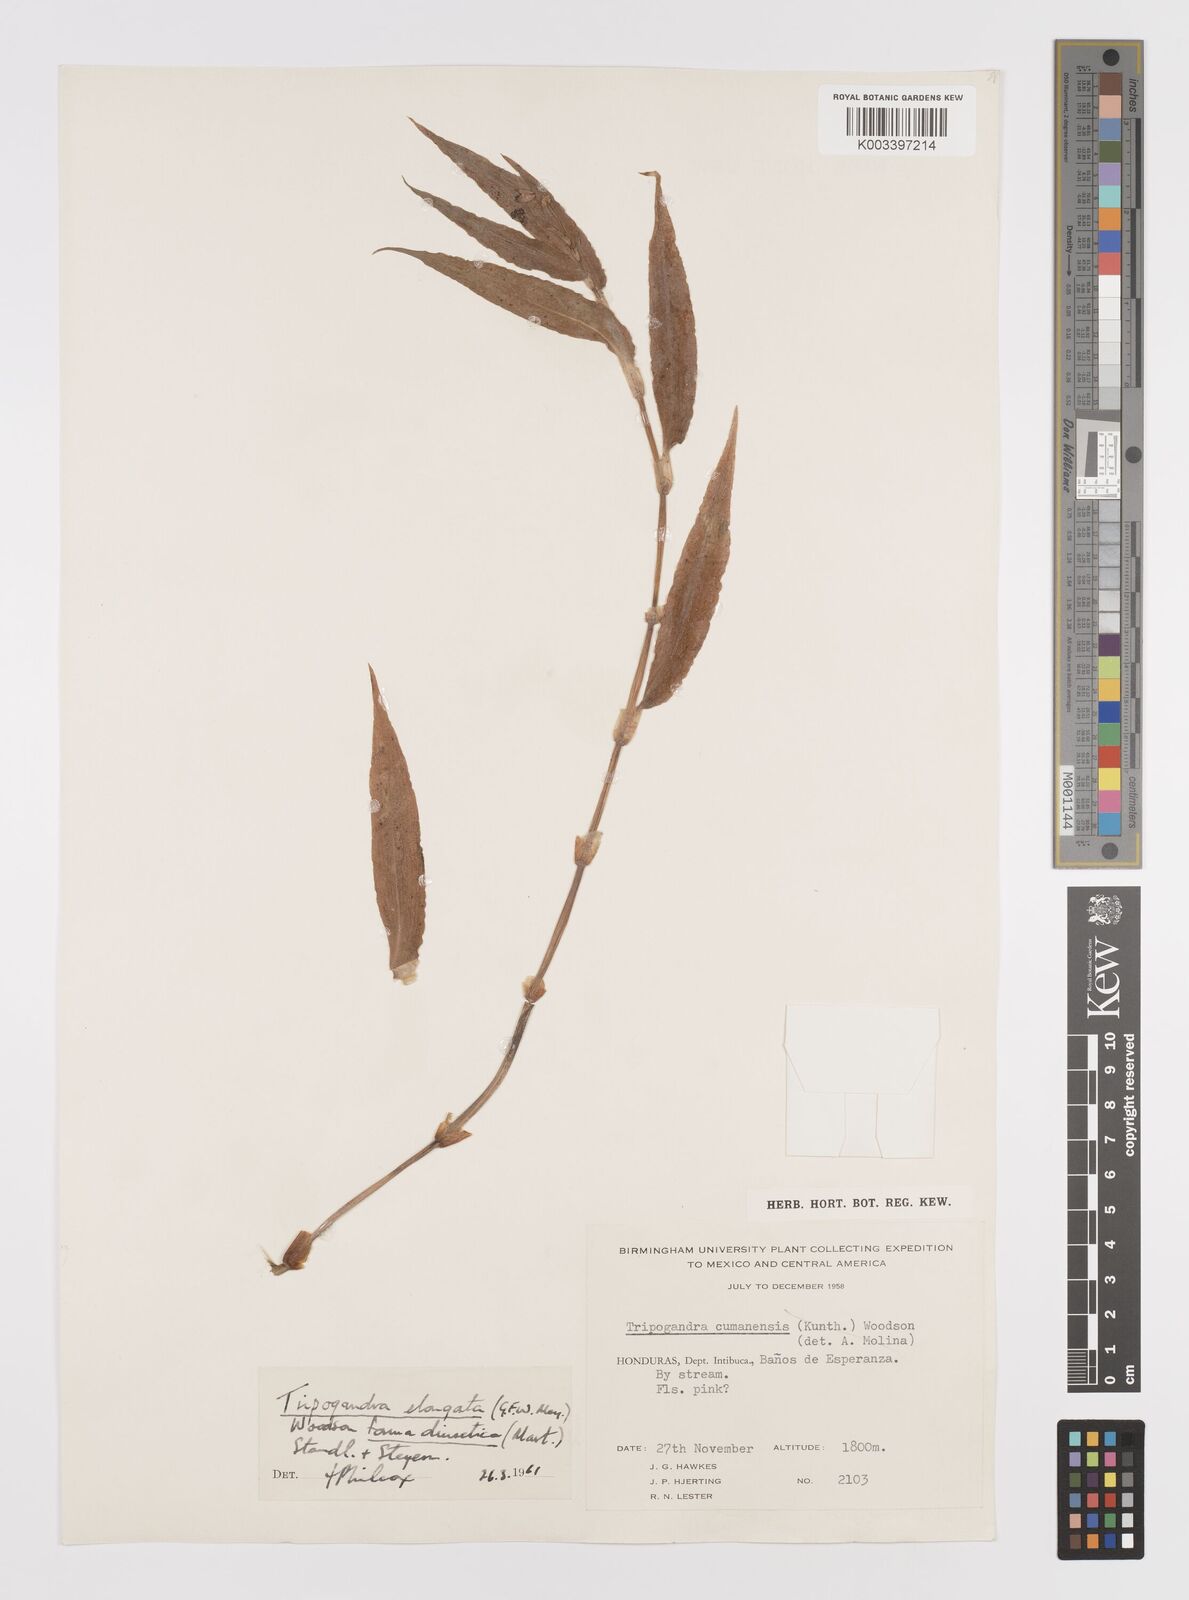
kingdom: Plantae
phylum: Tracheophyta
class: Liliopsida
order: Commelinales
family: Commelinaceae
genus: Callisia
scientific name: Callisia diuretica
